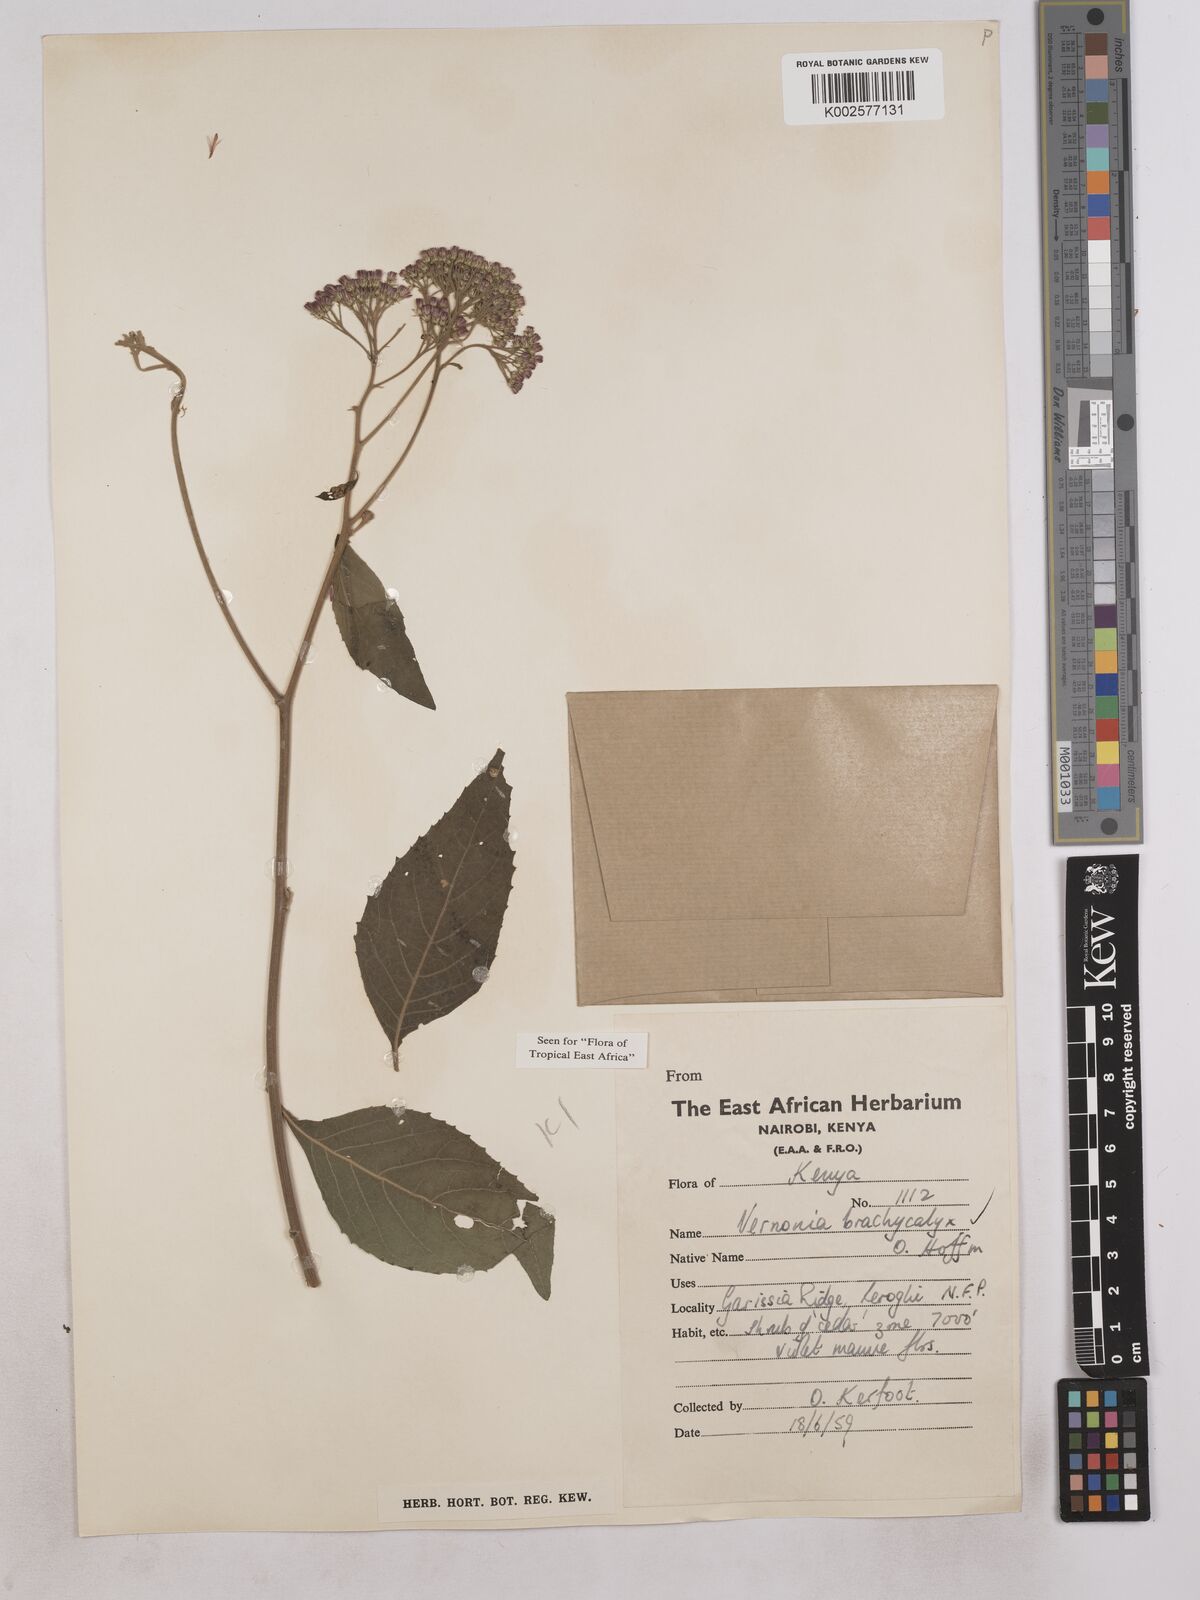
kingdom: Plantae
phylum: Tracheophyta
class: Magnoliopsida
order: Asterales
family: Asteraceae
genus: Hoffmannanthus
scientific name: Hoffmannanthus abbotianus
